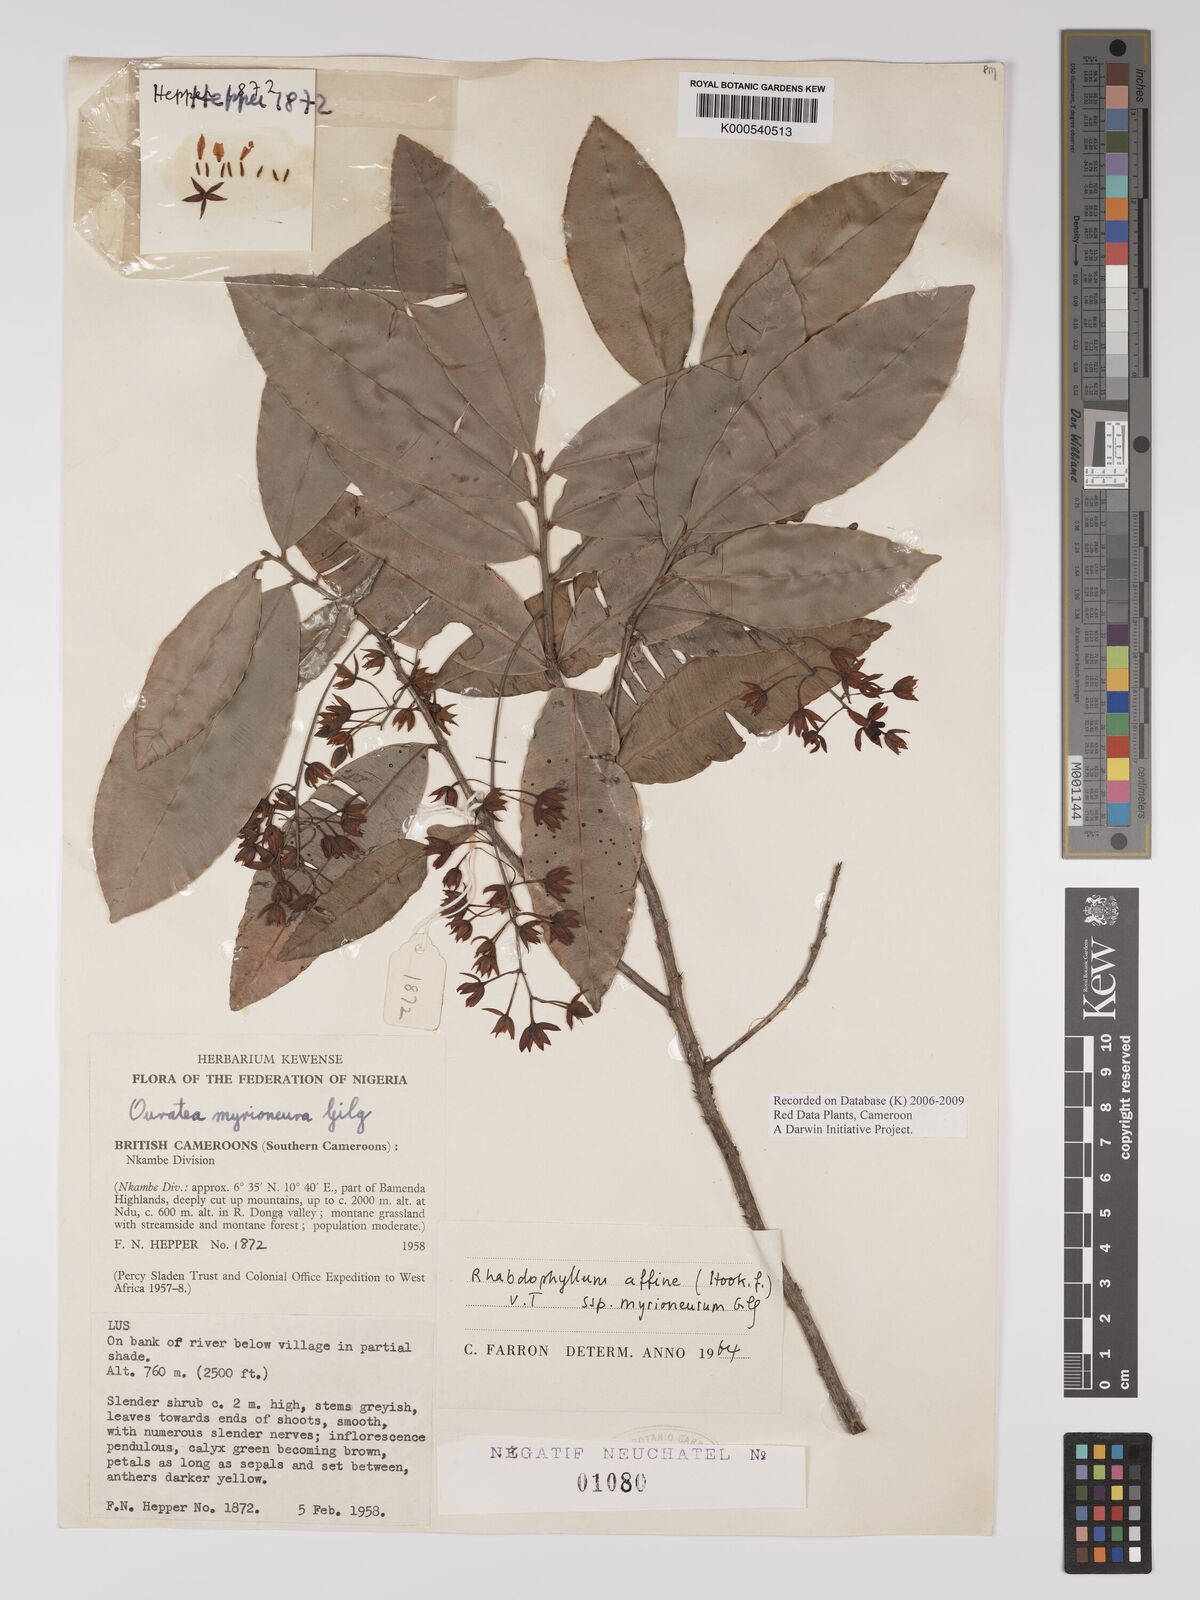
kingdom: Plantae
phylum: Tracheophyta
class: Magnoliopsida
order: Malpighiales
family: Ochnaceae
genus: Rhabdophyllum
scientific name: Rhabdophyllum affine
